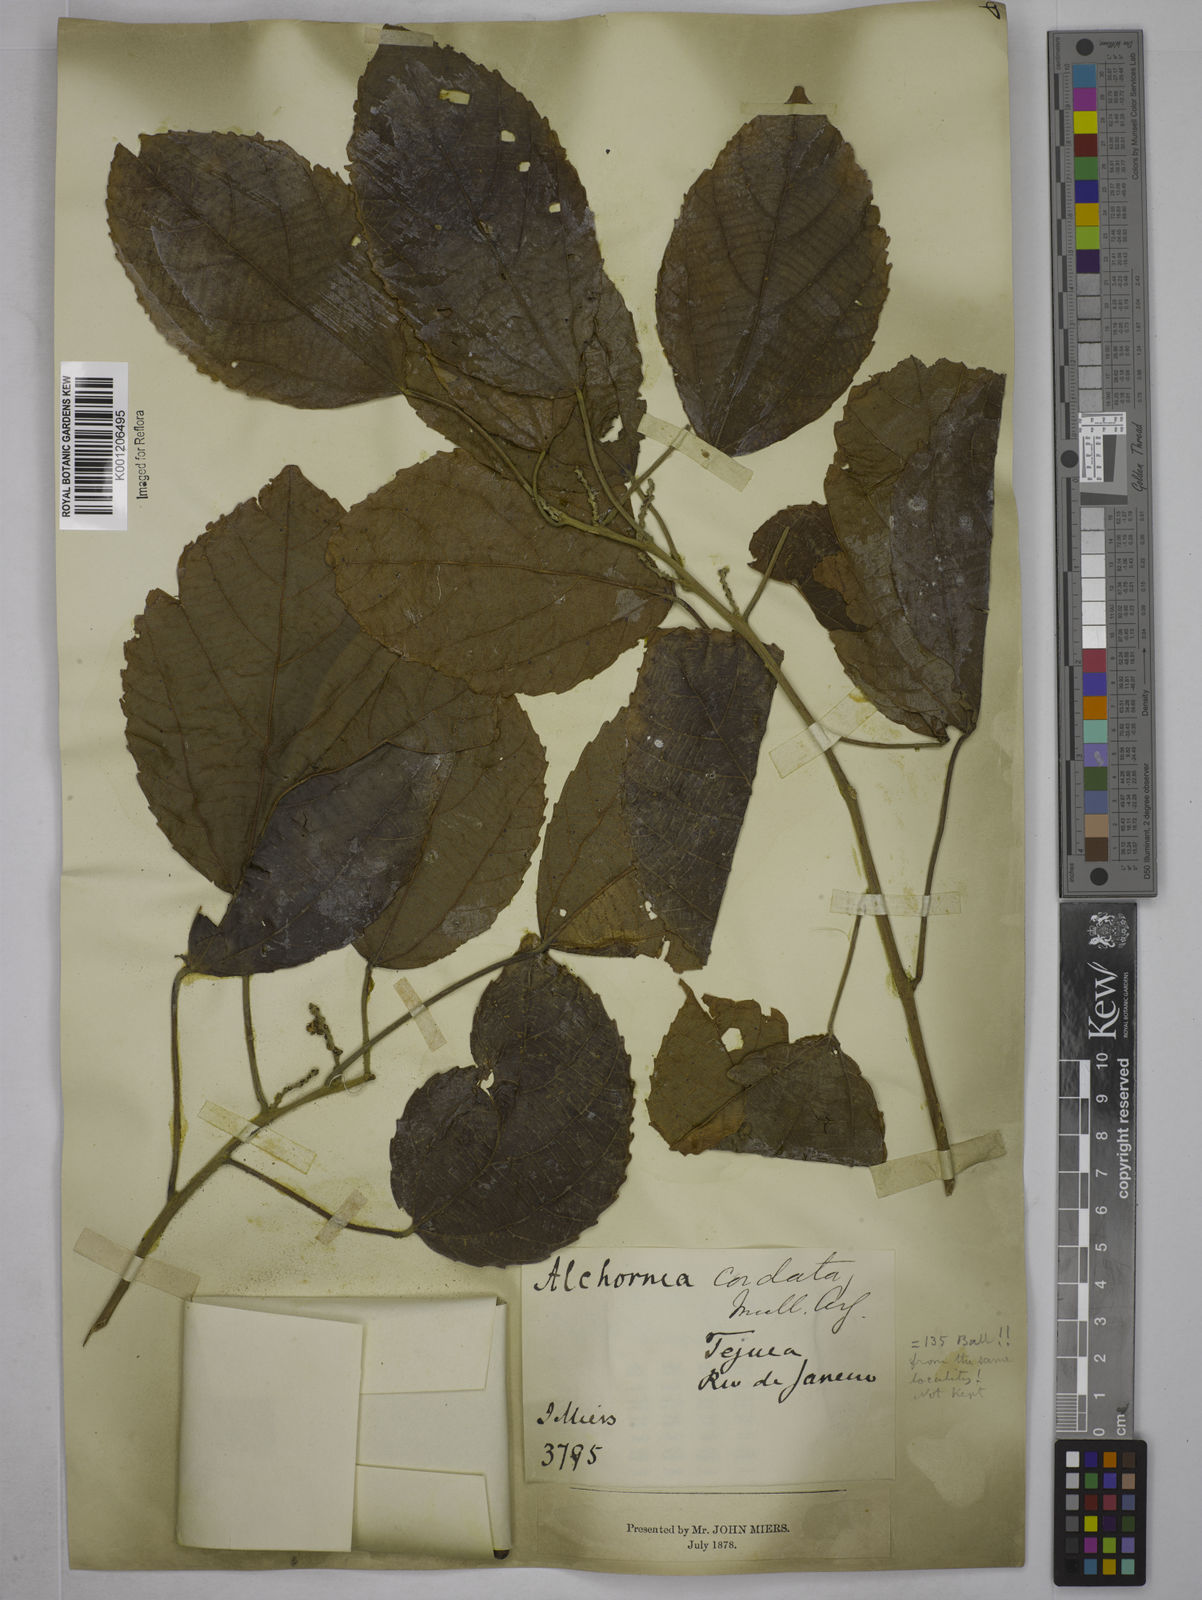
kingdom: Plantae
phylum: Tracheophyta
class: Magnoliopsida
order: Malpighiales
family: Euphorbiaceae
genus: Aparisthmium
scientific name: Aparisthmium cordatum
